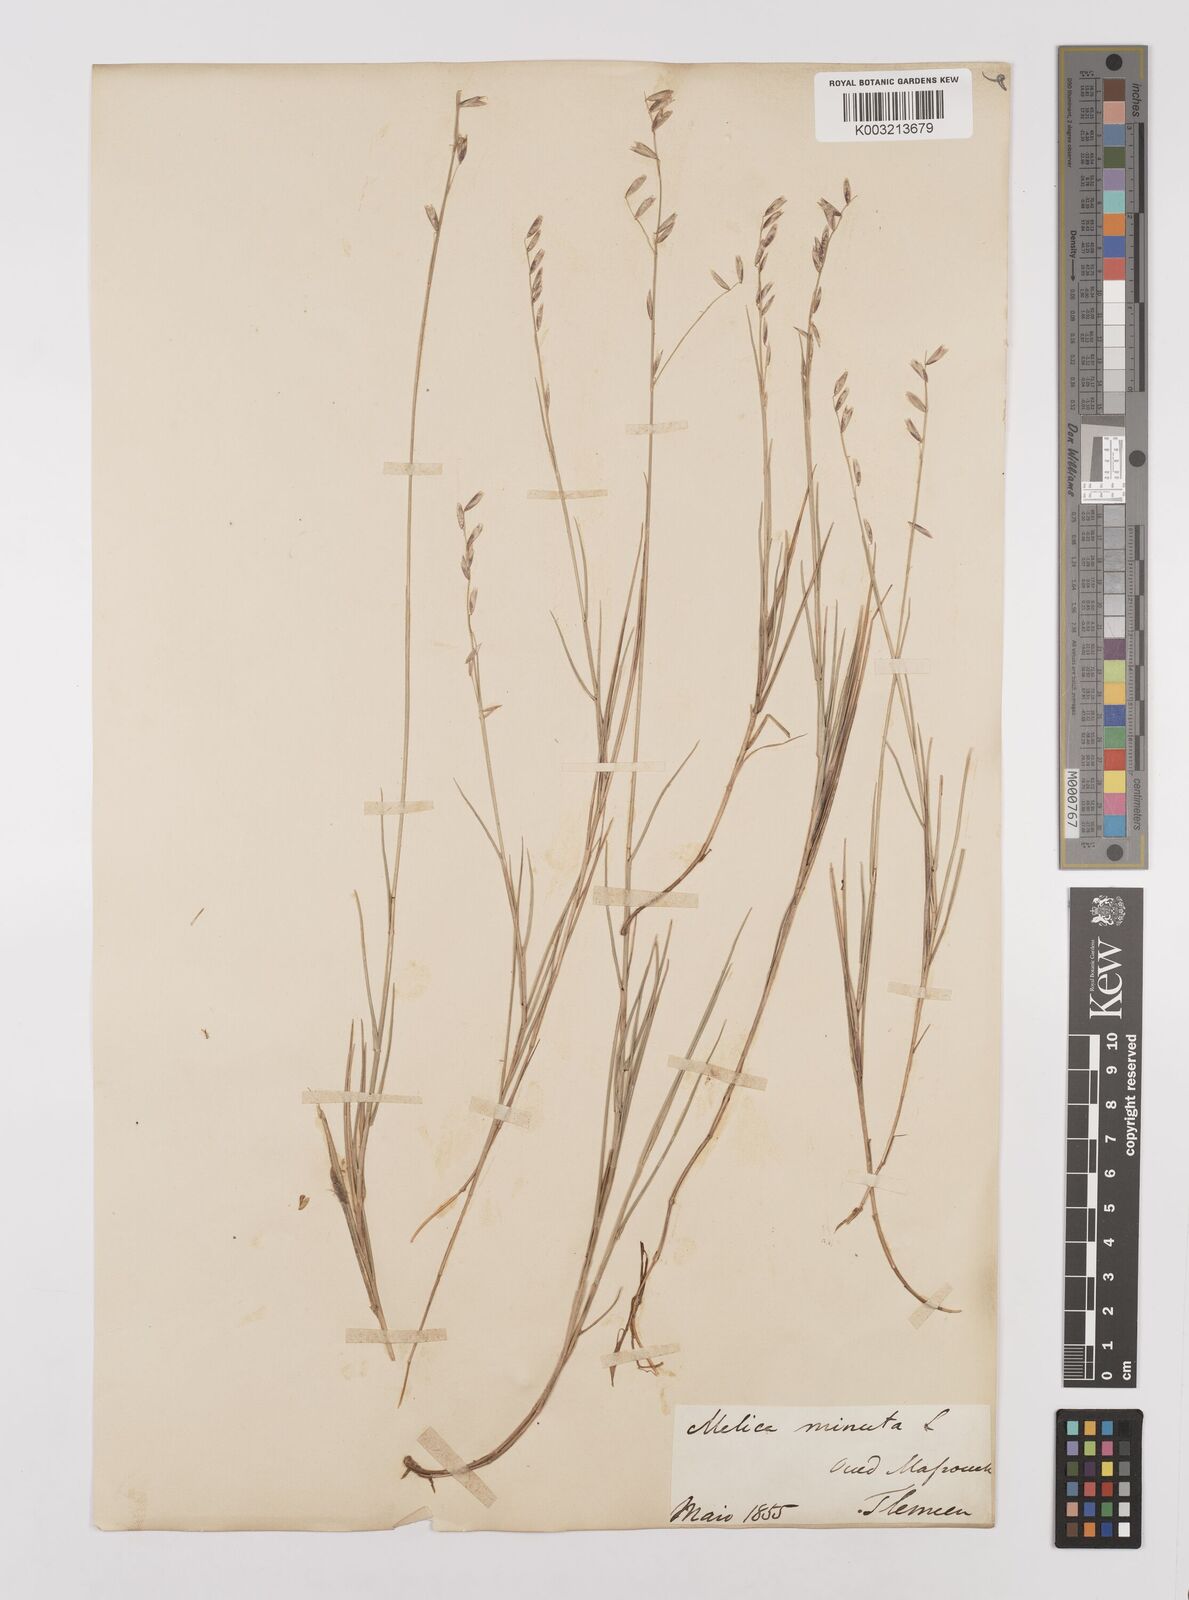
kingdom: Plantae
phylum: Tracheophyta
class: Liliopsida
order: Poales
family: Poaceae
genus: Melica
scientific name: Melica minuta
